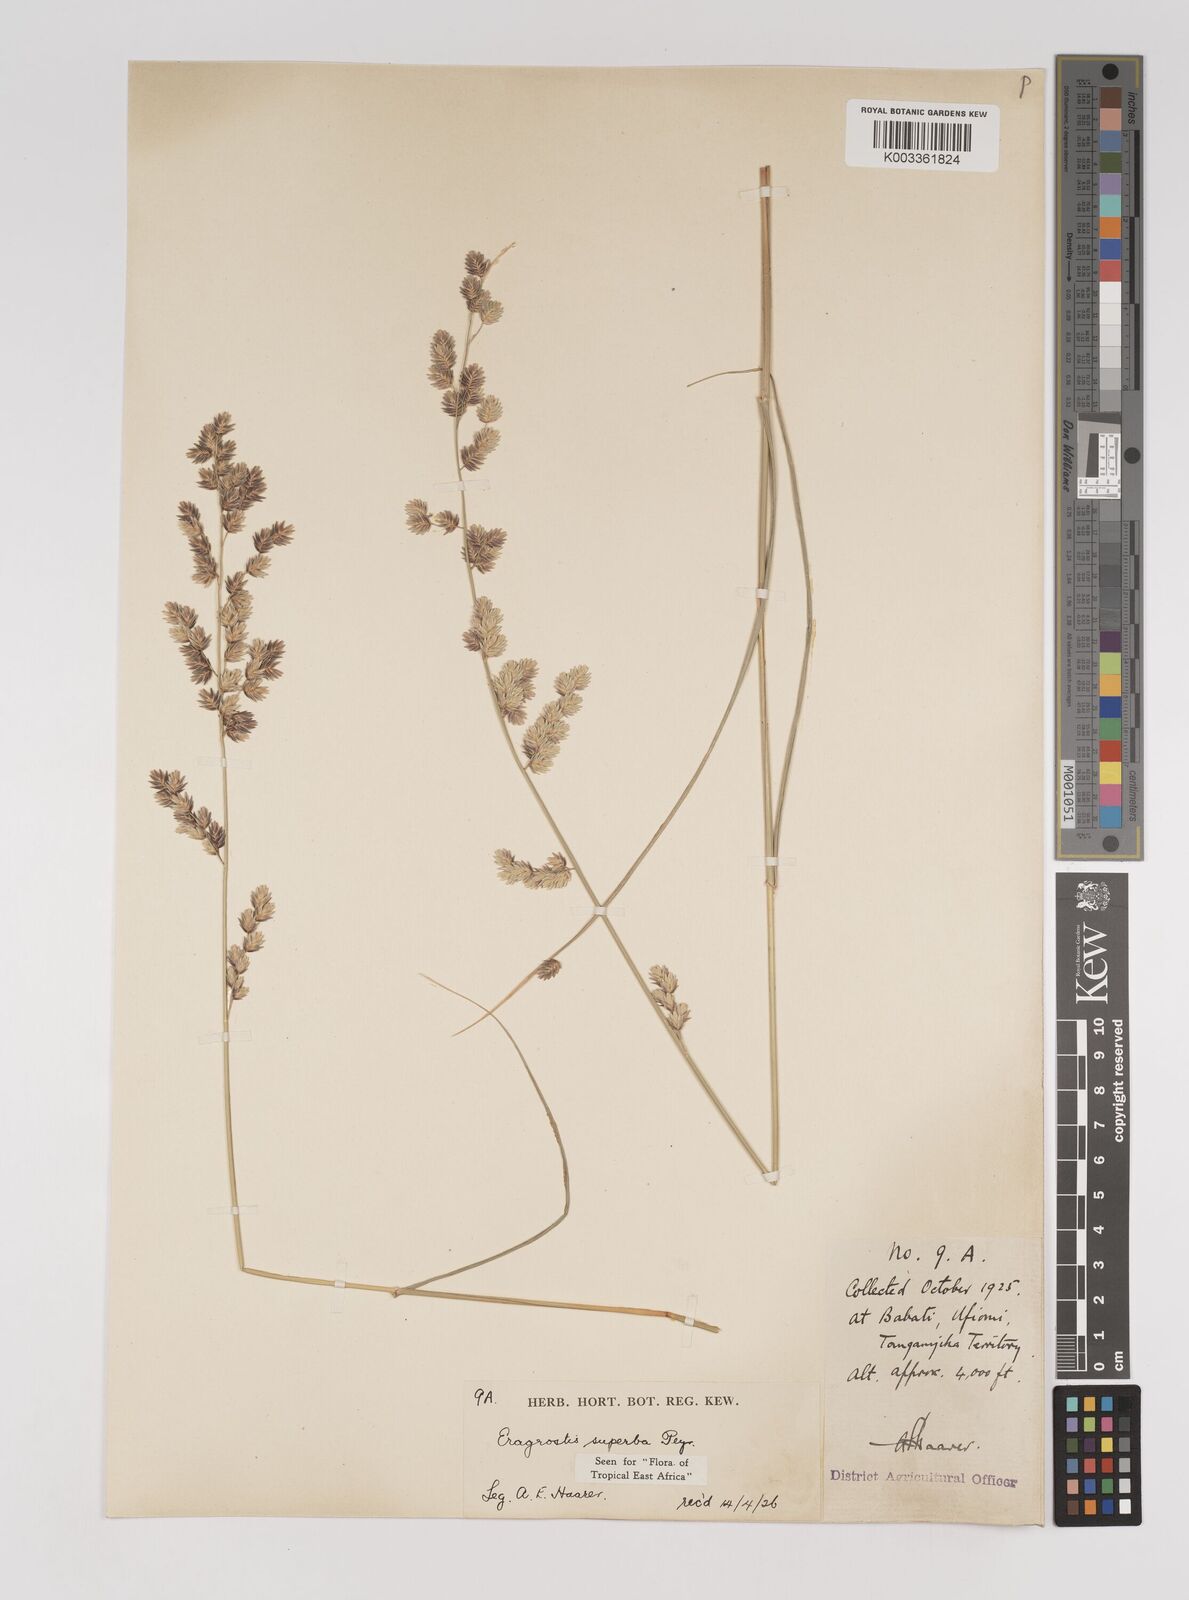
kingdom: Plantae
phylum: Tracheophyta
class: Liliopsida
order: Poales
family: Poaceae
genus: Eragrostis
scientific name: Eragrostis superba
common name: Wilman lovegrass
